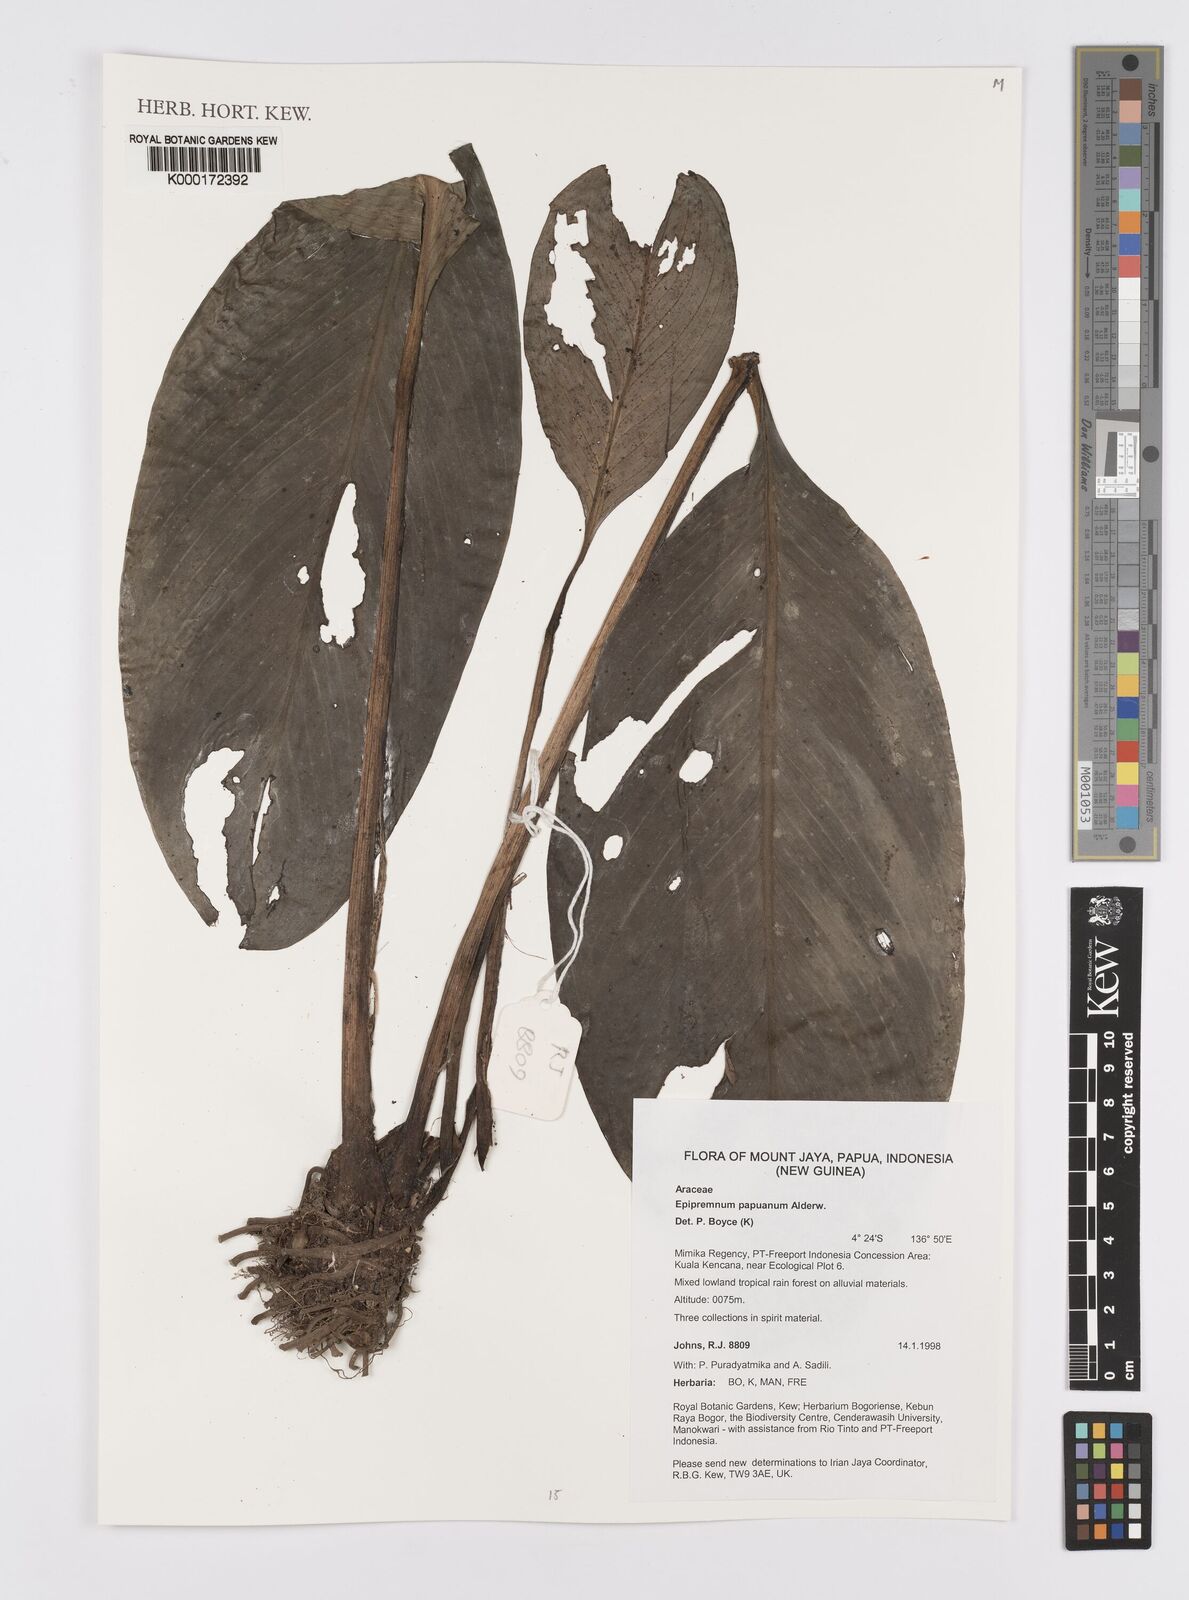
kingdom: Plantae
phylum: Tracheophyta
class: Liliopsida
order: Alismatales
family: Araceae
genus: Epipremnum
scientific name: Epipremnum papuanum
